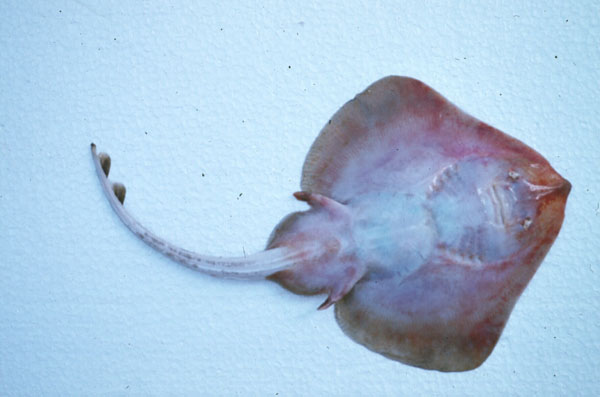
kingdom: Animalia
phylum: Chordata
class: Elasmobranchii
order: Rajiformes
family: Rajidae
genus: Leucoraja
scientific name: Leucoraja wallacei
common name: Blancmange skate
